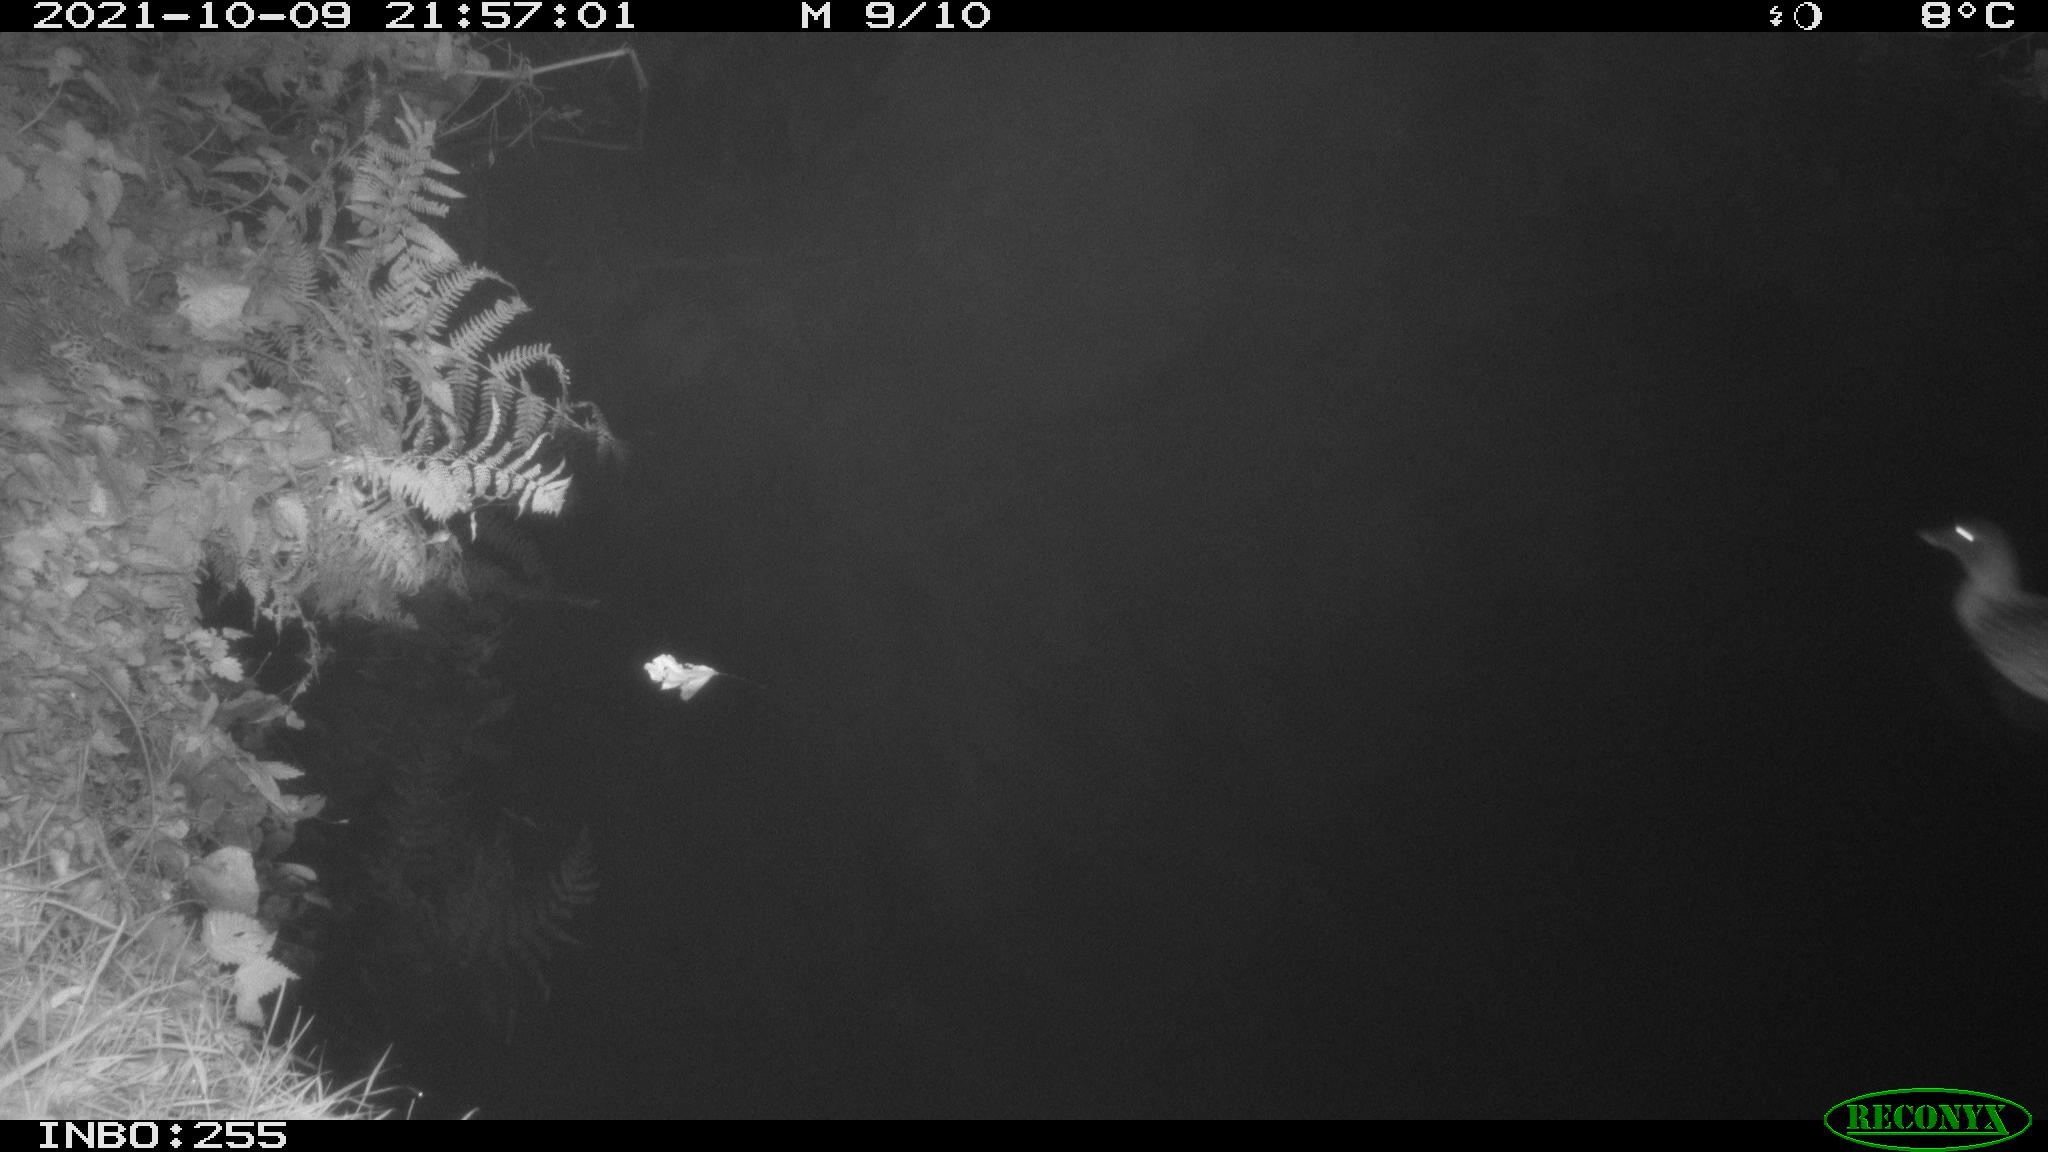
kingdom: Animalia
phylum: Chordata
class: Aves
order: Anseriformes
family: Anatidae
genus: Anas
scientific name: Anas platyrhynchos
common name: Mallard
